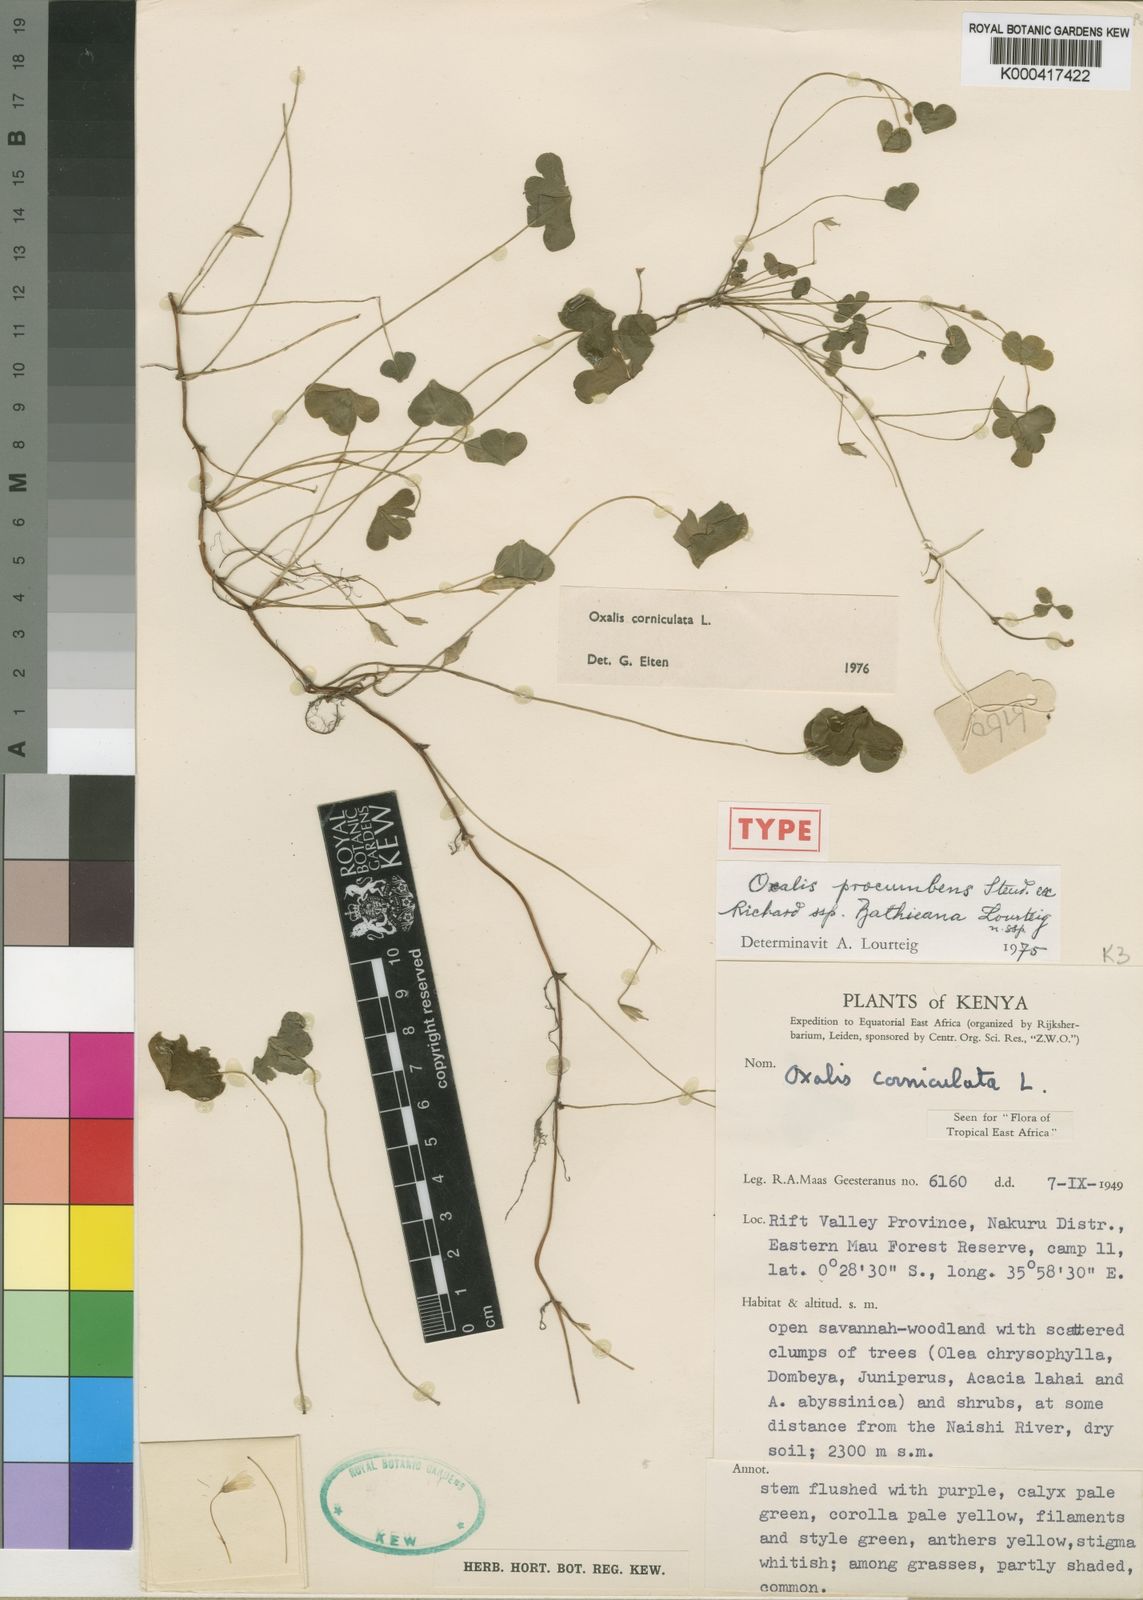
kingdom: Plantae
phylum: Tracheophyta
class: Magnoliopsida
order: Oxalidales
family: Oxalidaceae
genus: Oxalis
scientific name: Oxalis procumbens
